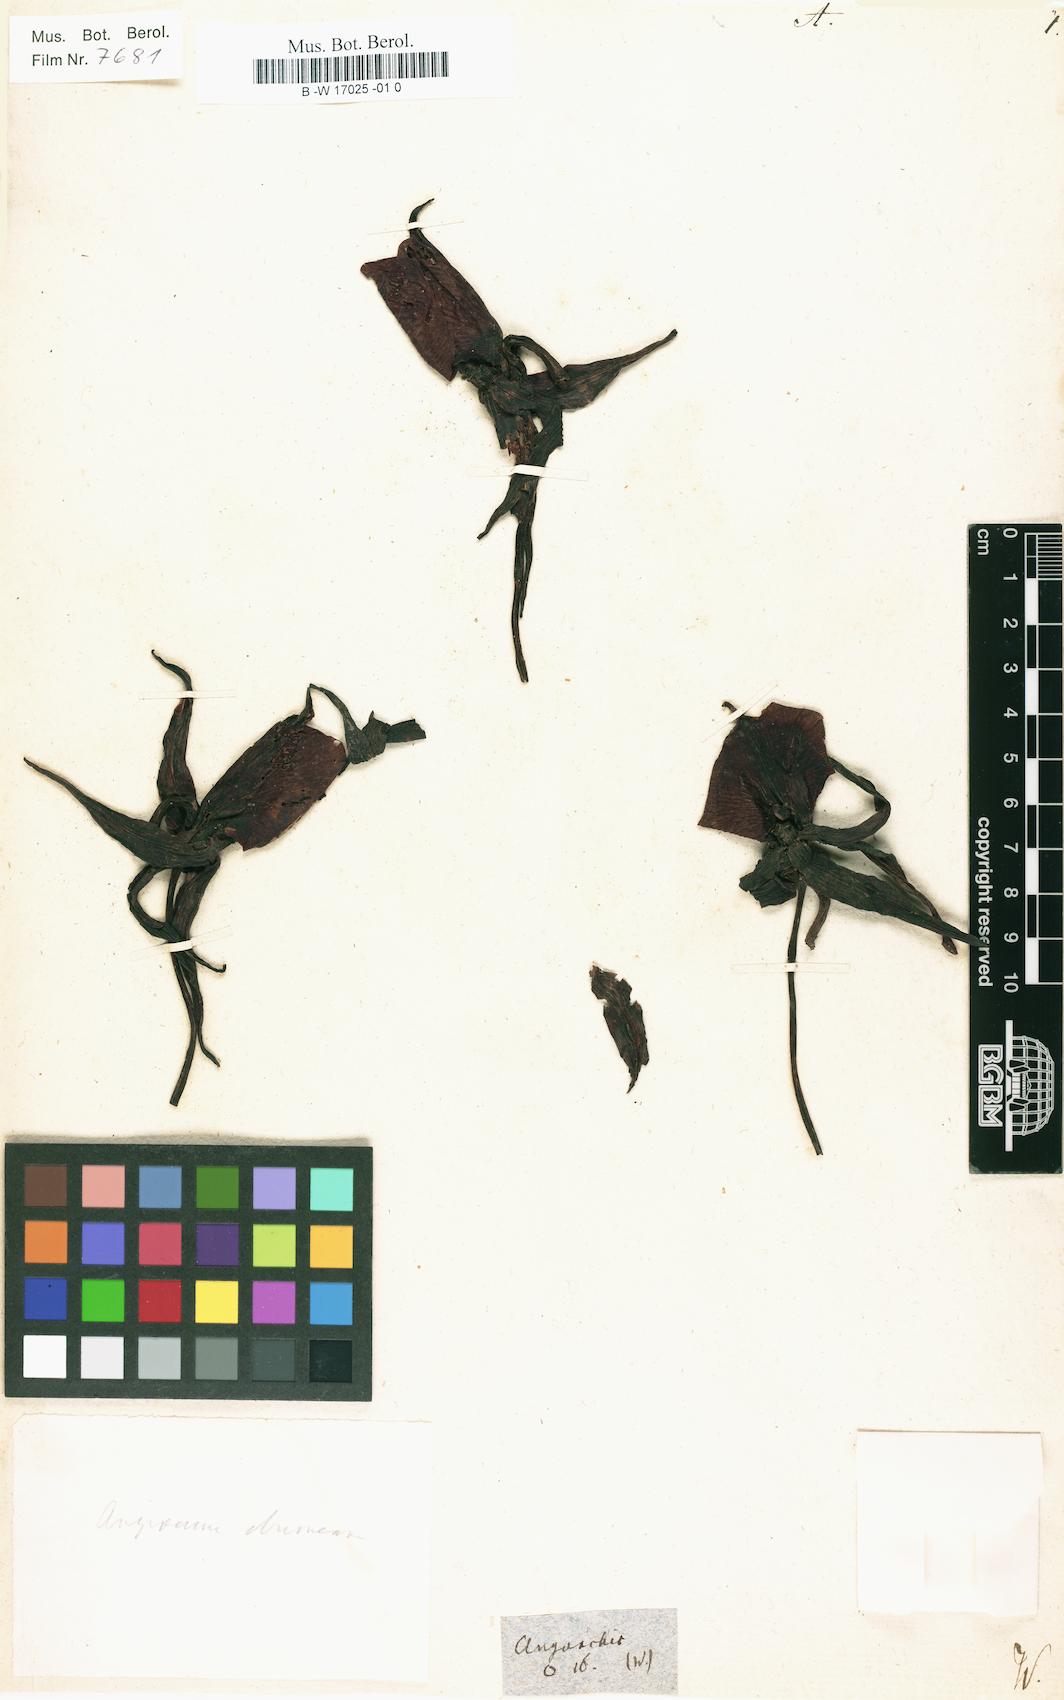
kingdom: Plantae
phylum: Tracheophyta
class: Liliopsida
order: Asparagales
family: Orchidaceae
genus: Angorchis
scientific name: Angorchis
